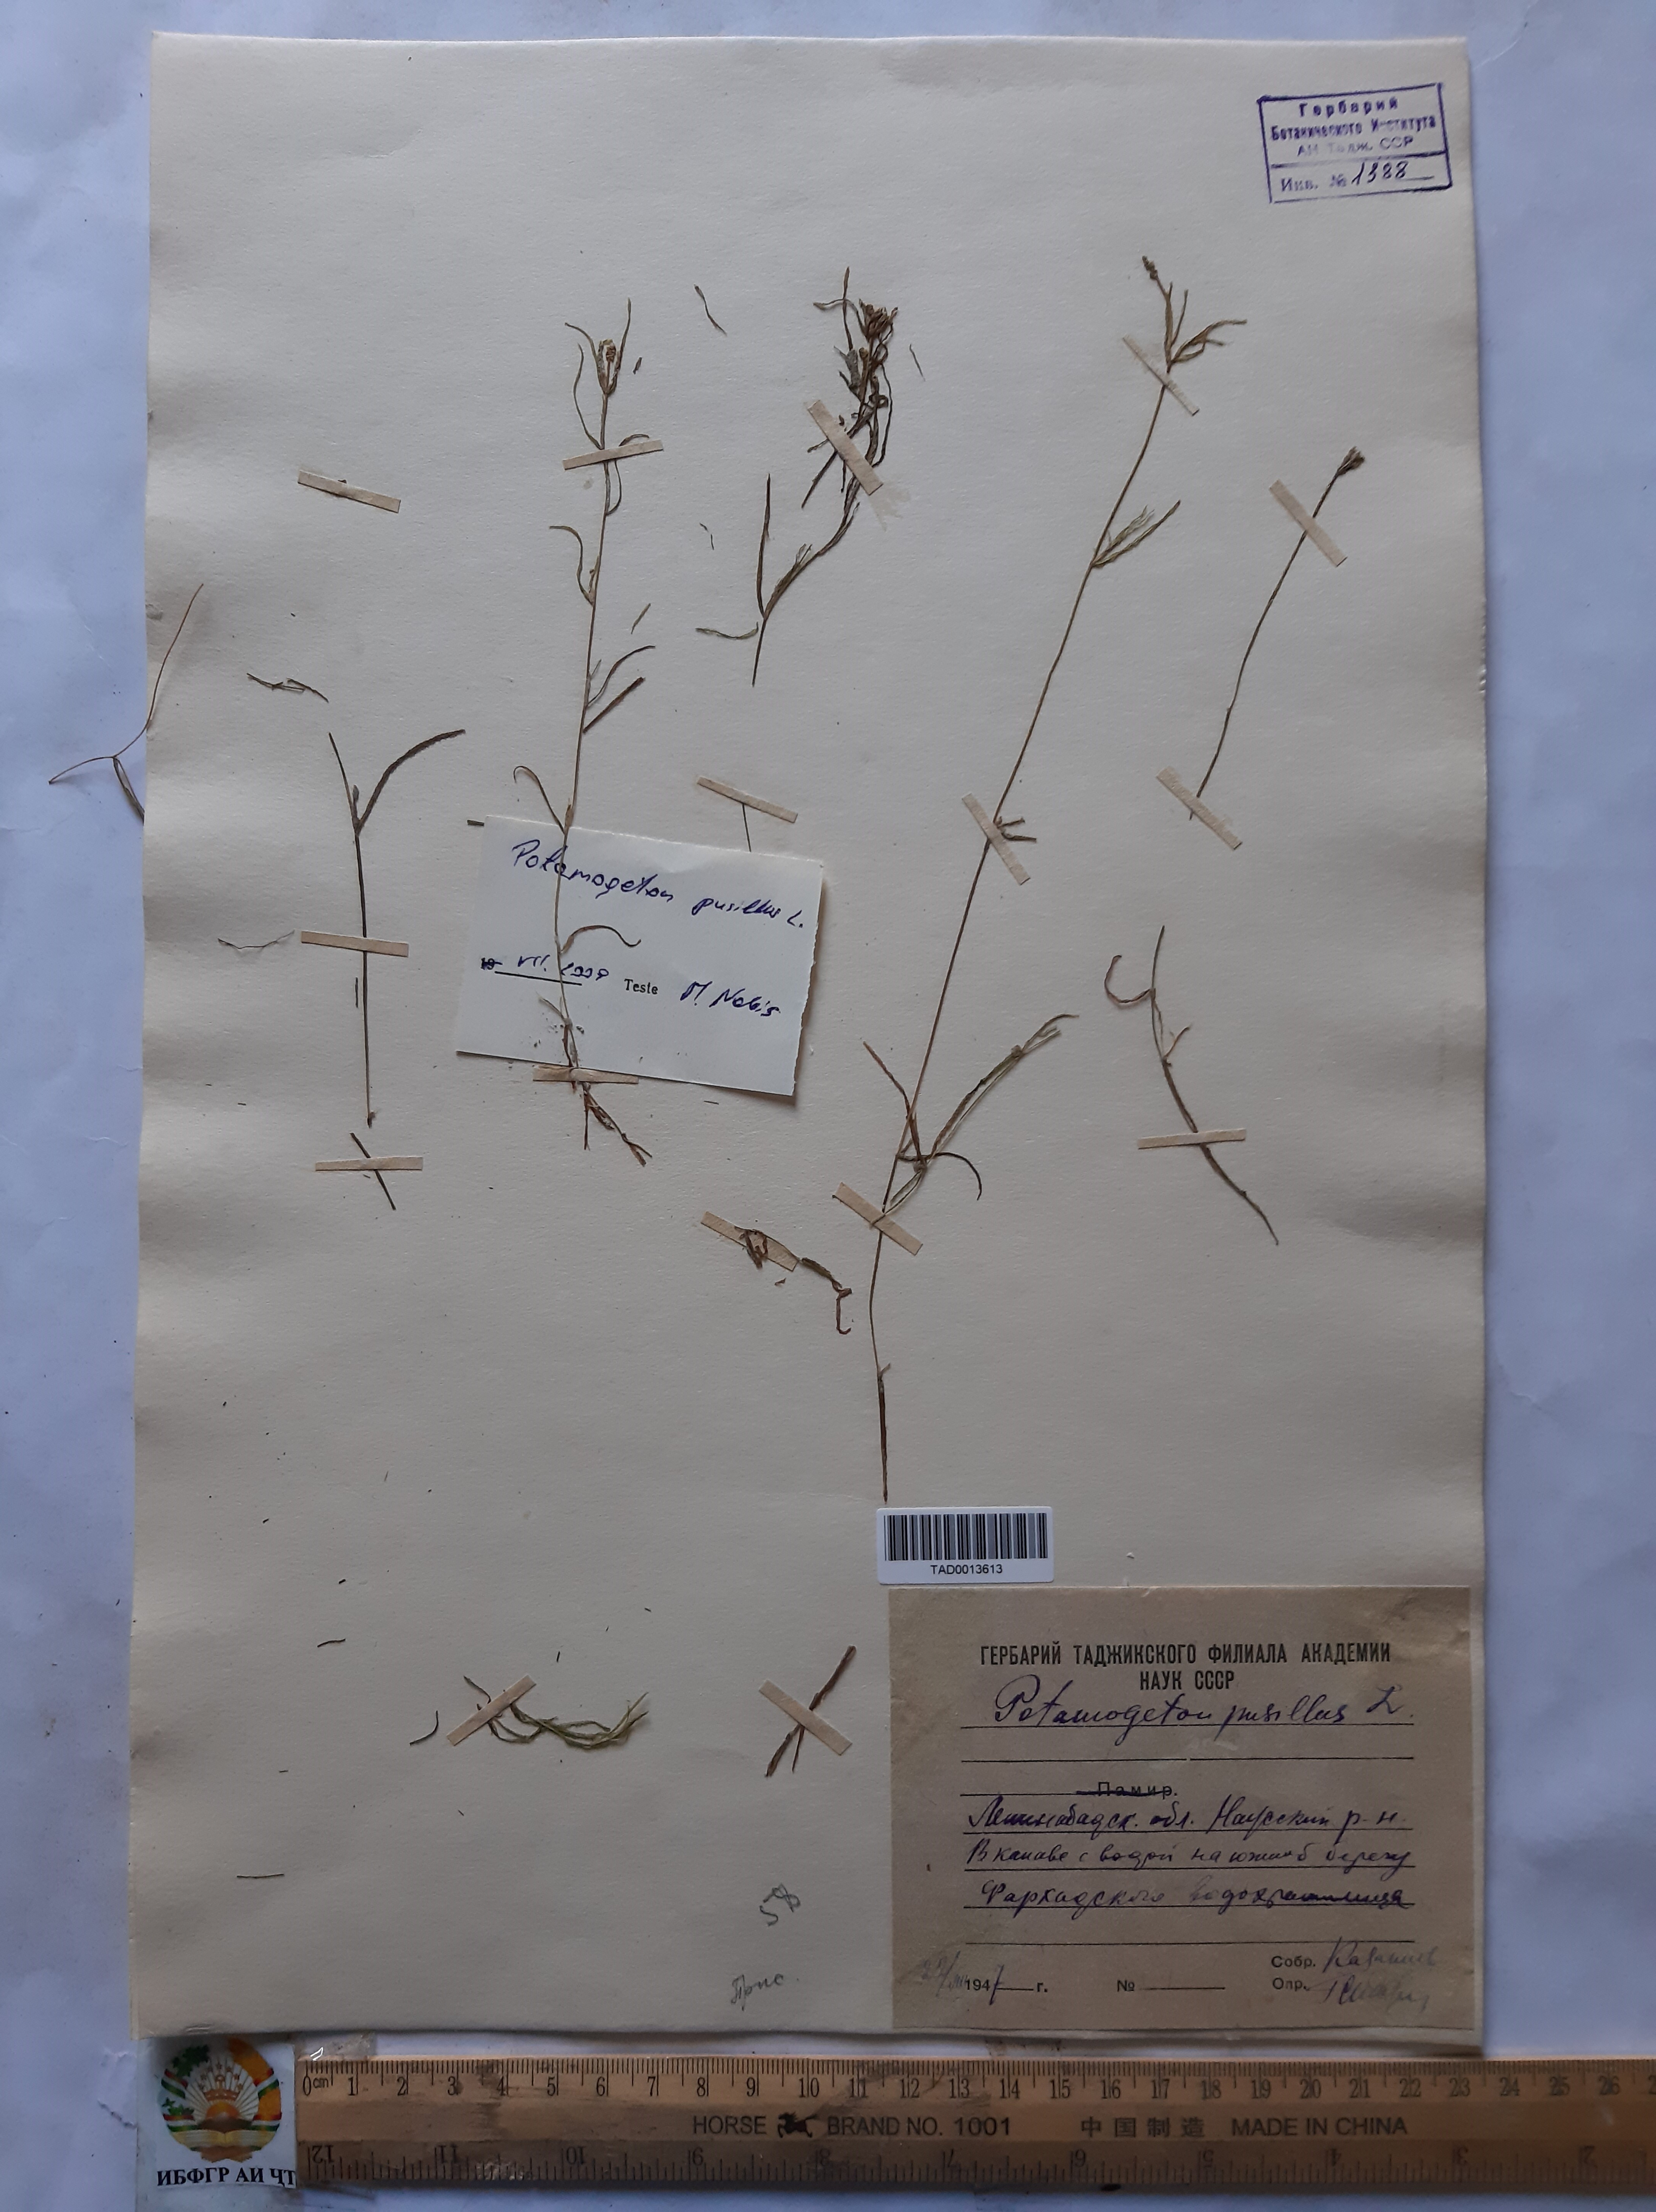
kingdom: Plantae
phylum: Tracheophyta
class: Liliopsida
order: Alismatales
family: Potamogetonaceae
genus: Potamogeton
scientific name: Potamogeton pusillus
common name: Lesser pondweed
